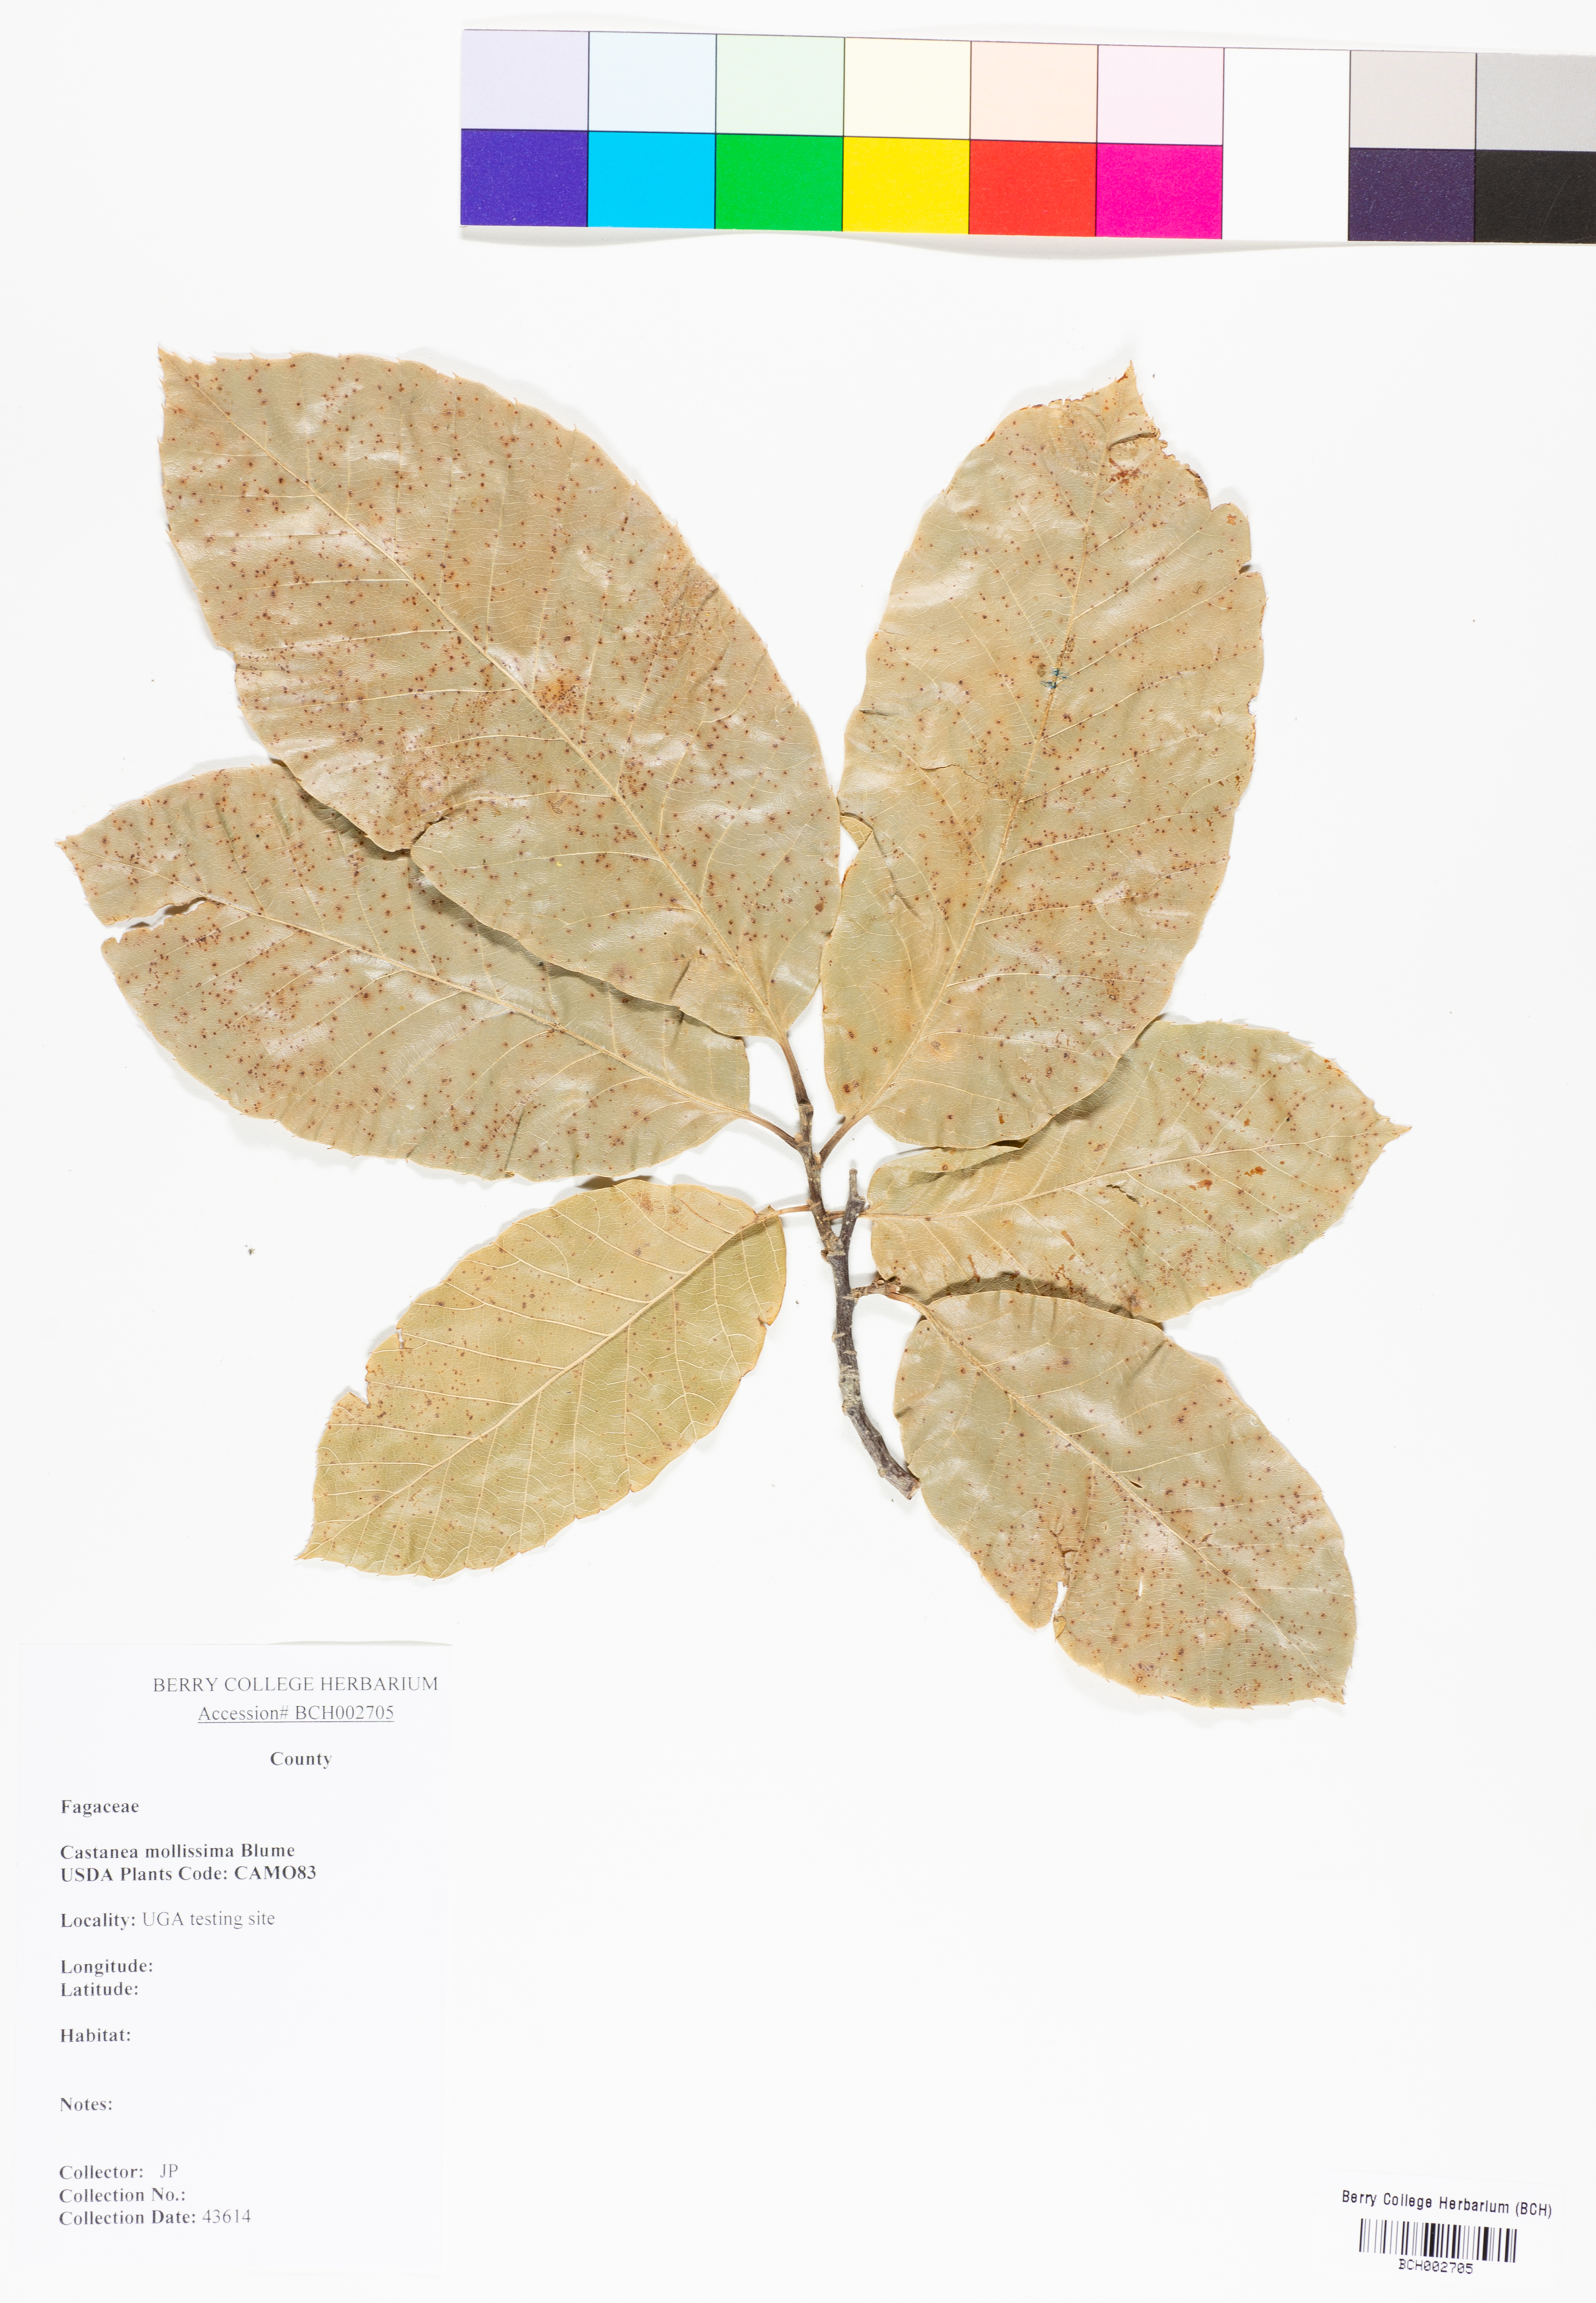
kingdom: Plantae
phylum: Tracheophyta
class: Magnoliopsida
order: Fagales
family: Fagaceae
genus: Castanea
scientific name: Castanea mollissima
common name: Chinese chestnut
